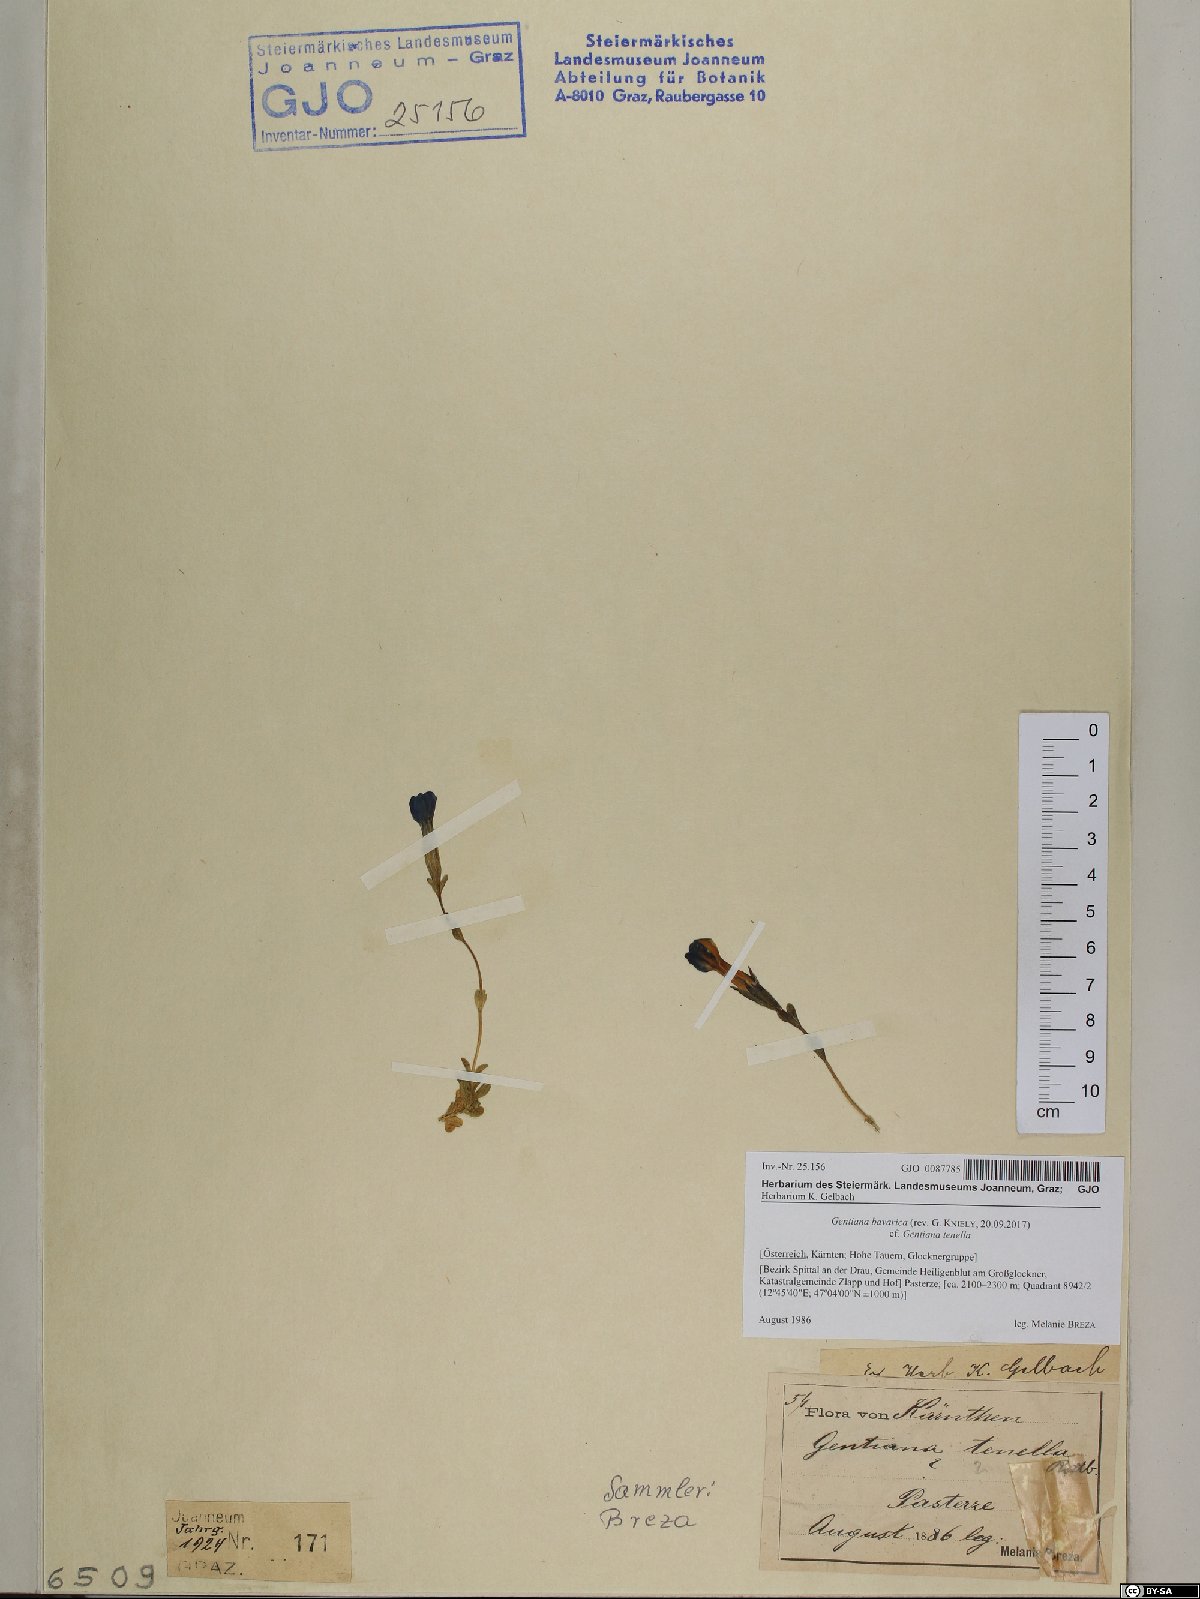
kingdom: Plantae
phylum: Tracheophyta
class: Magnoliopsida
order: Gentianales
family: Gentianaceae
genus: Gentiana
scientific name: Gentiana bavarica
